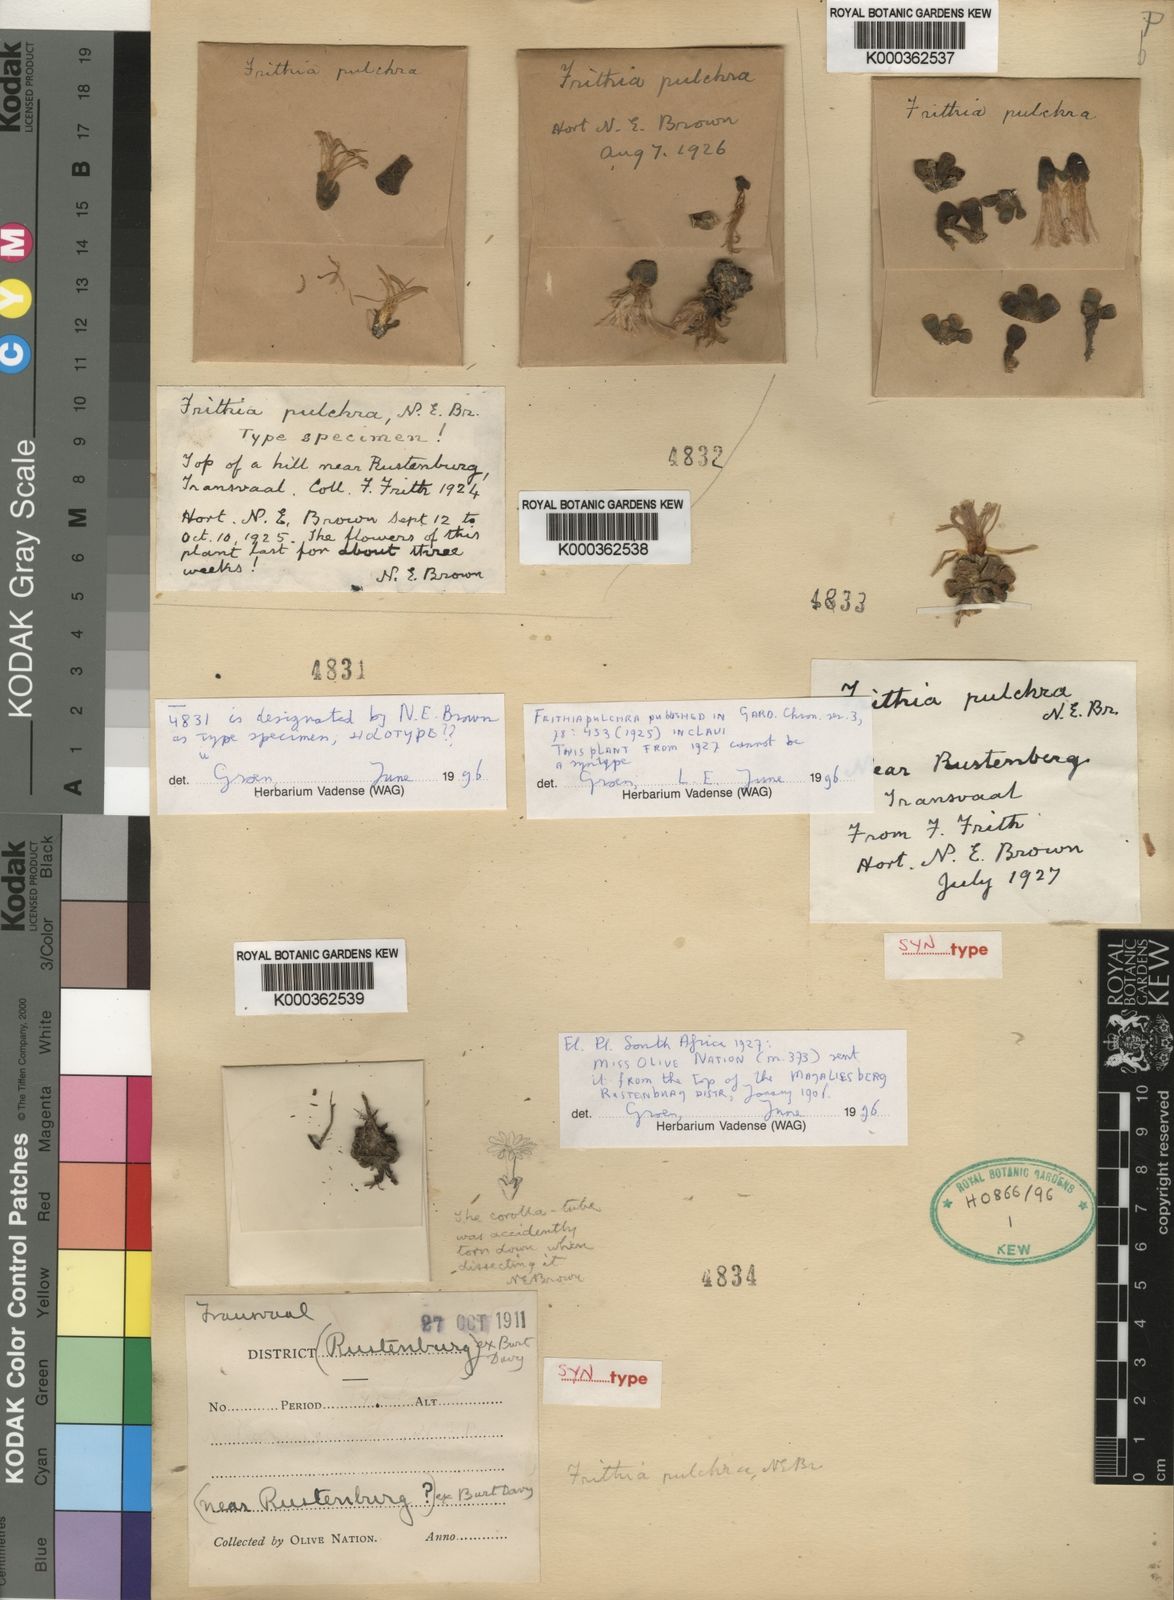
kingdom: Plantae
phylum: Tracheophyta
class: Magnoliopsida
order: Caryophyllales
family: Aizoaceae
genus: Frithia
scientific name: Frithia pulchra
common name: Fairy elephant's-feet
